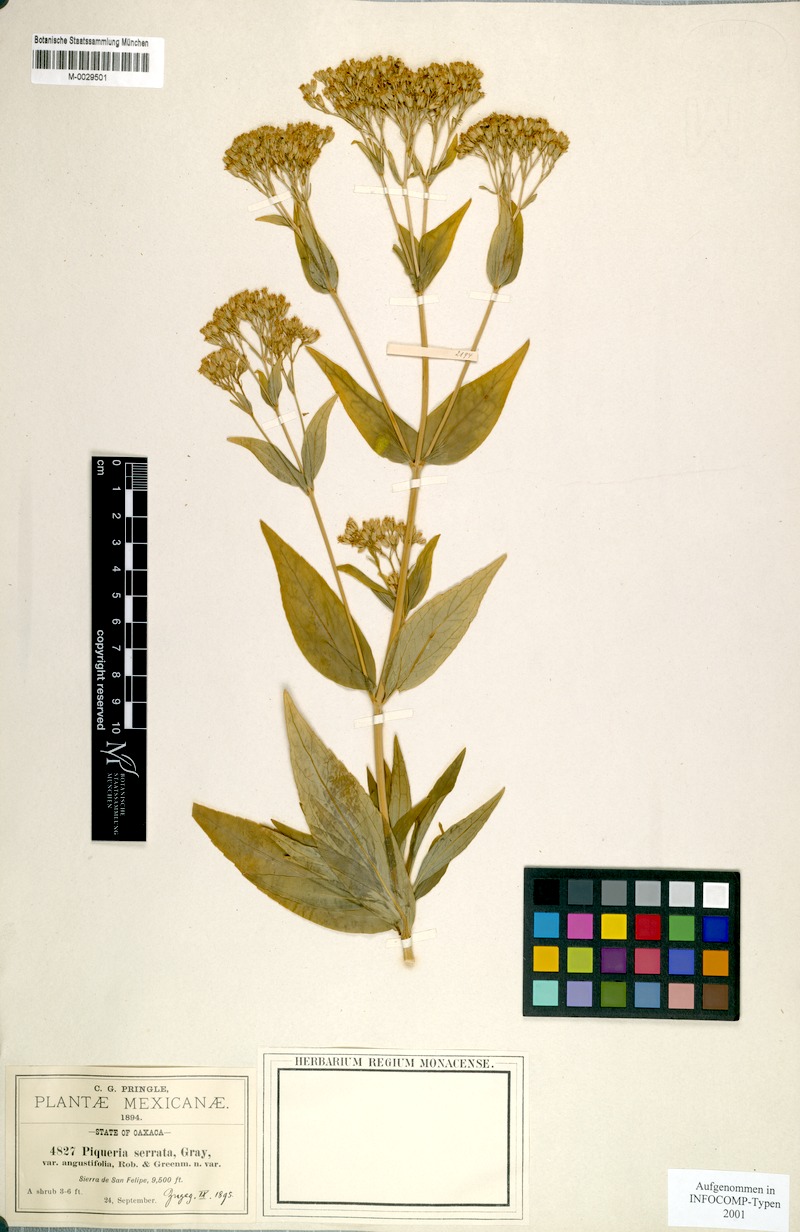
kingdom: Plantae
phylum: Tracheophyta
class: Magnoliopsida
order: Asterales
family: Asteraceae
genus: Piqueria
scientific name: Piqueria trinervia
